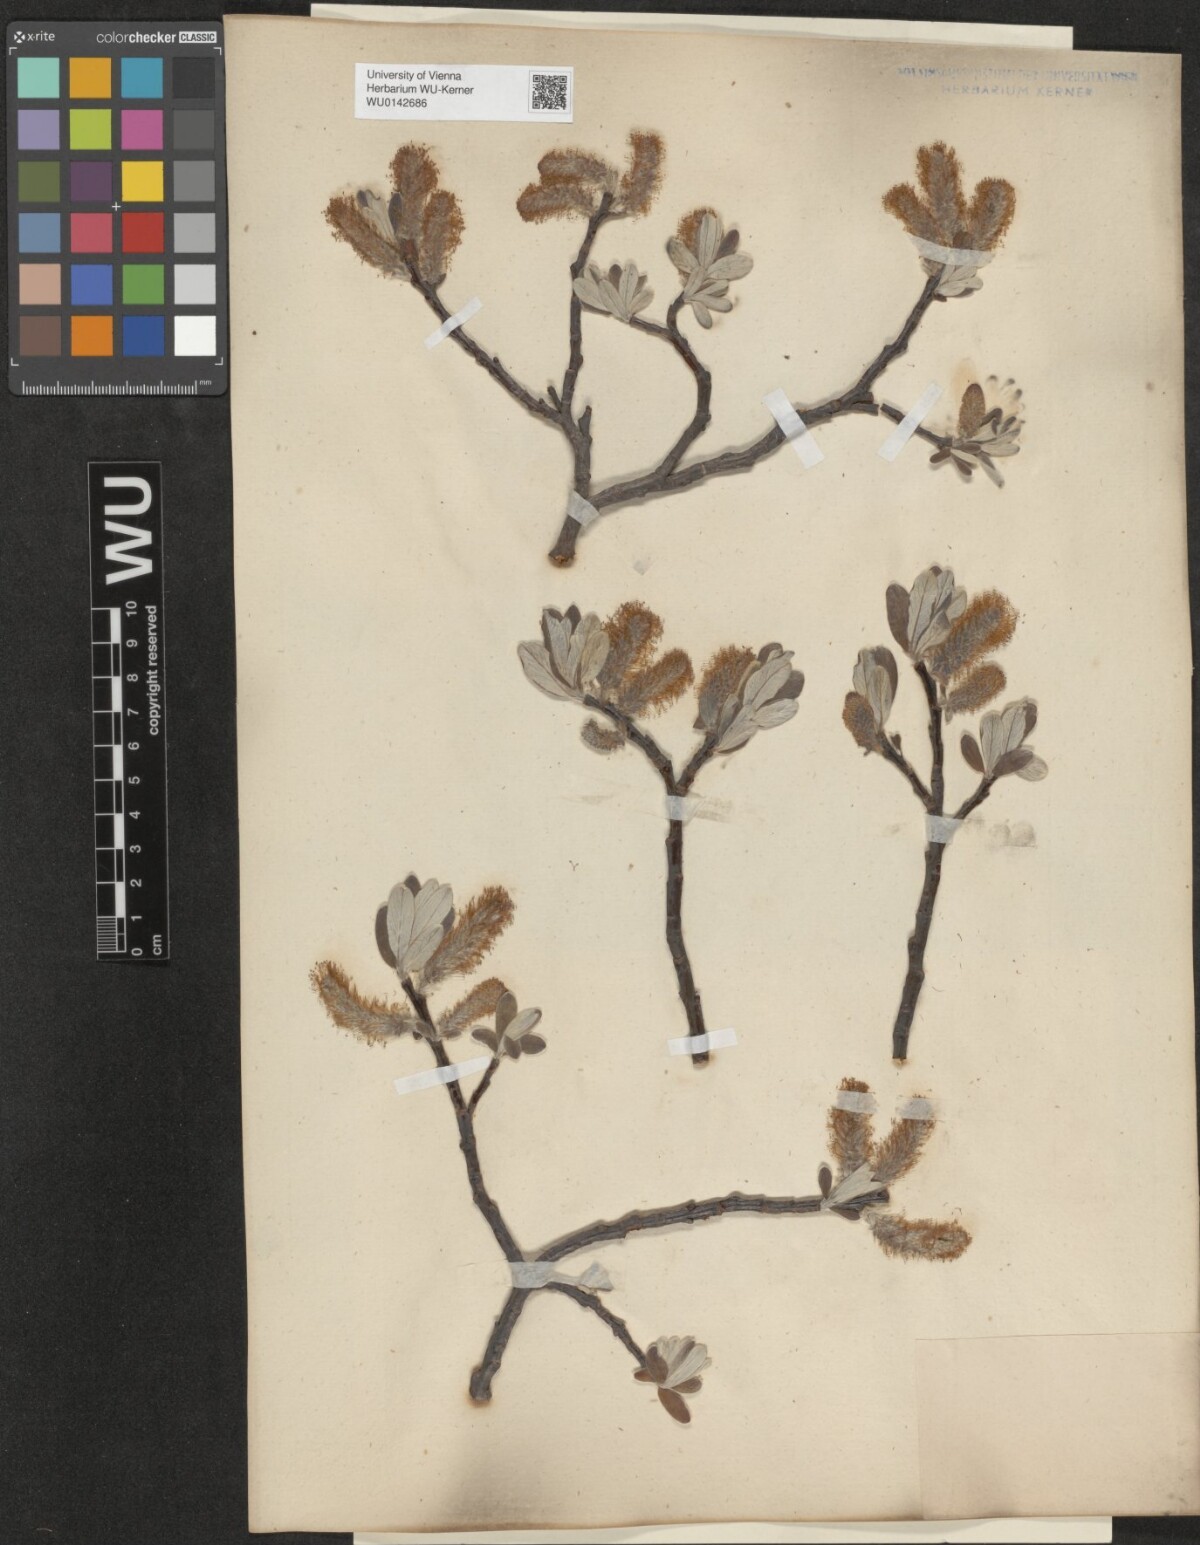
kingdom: Plantae
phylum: Tracheophyta
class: Magnoliopsida
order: Malpighiales
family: Salicaceae
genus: Salix
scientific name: Salix helvetica
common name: Swiss willow
